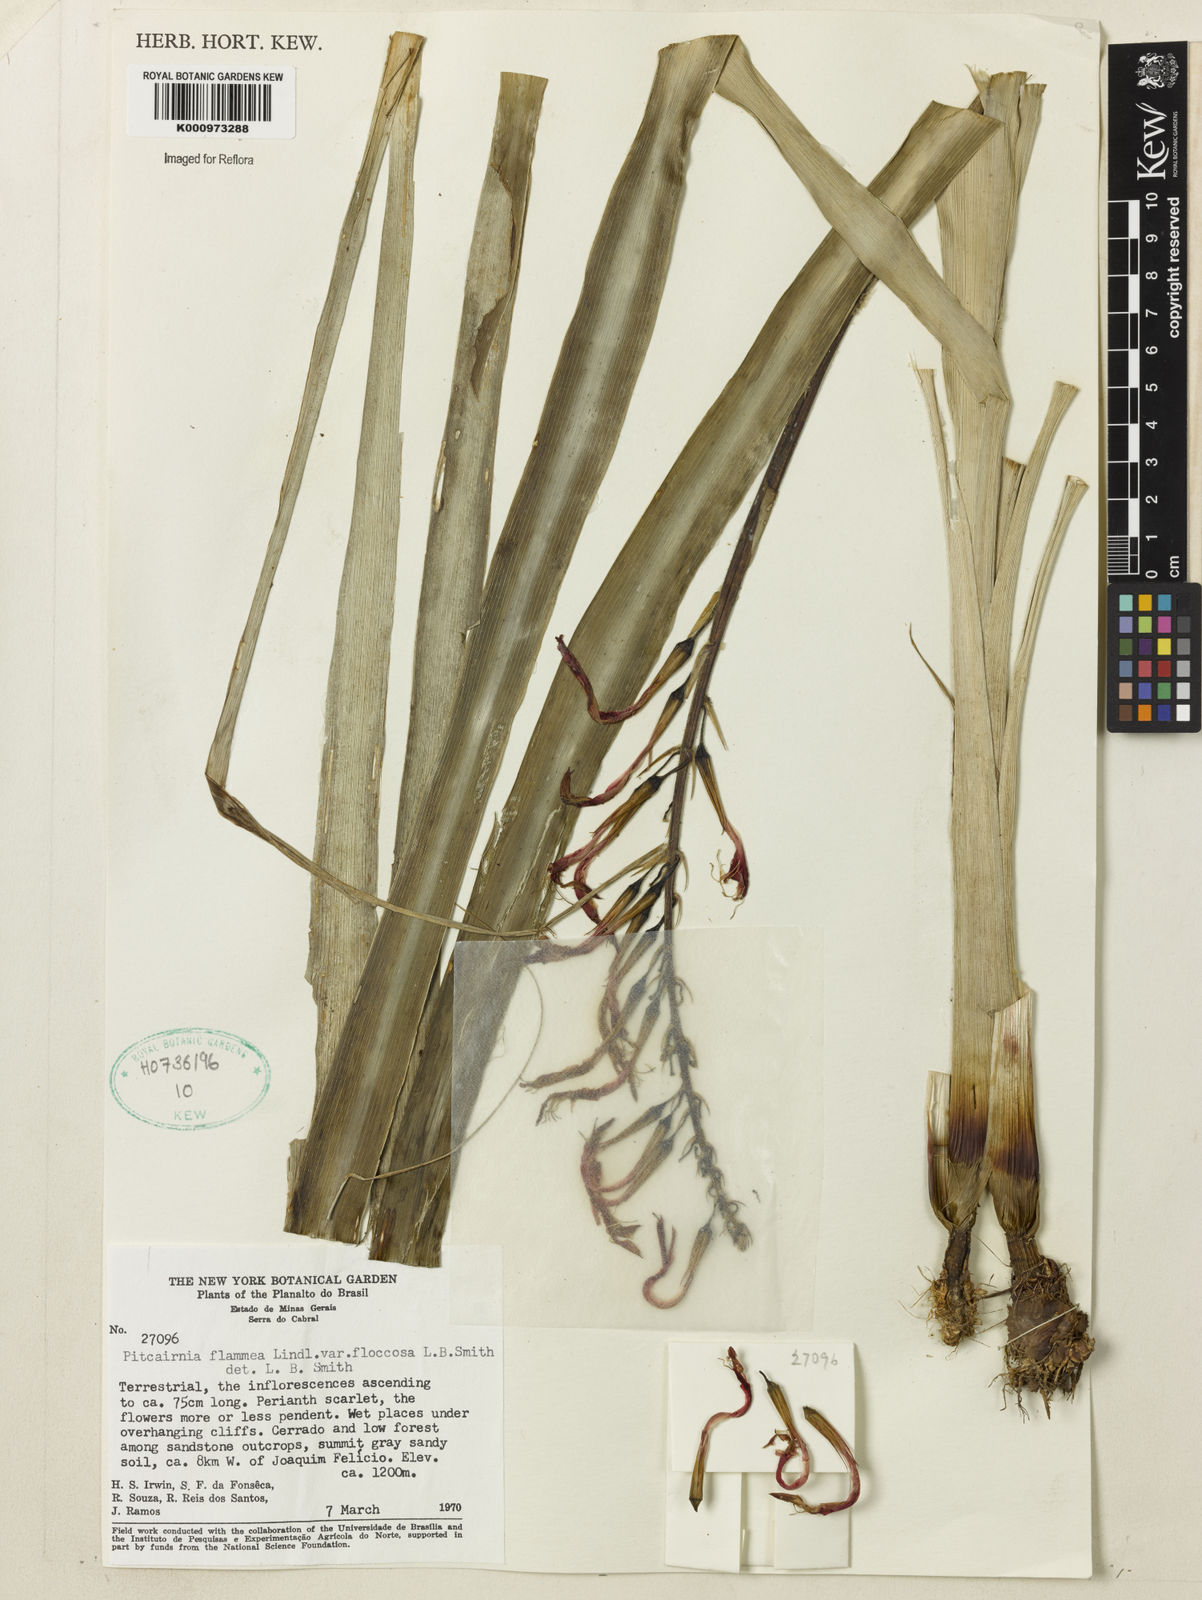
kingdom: Plantae
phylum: Tracheophyta
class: Liliopsida
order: Poales
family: Bromeliaceae
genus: Pitcairnia
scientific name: Pitcairnia flammea
